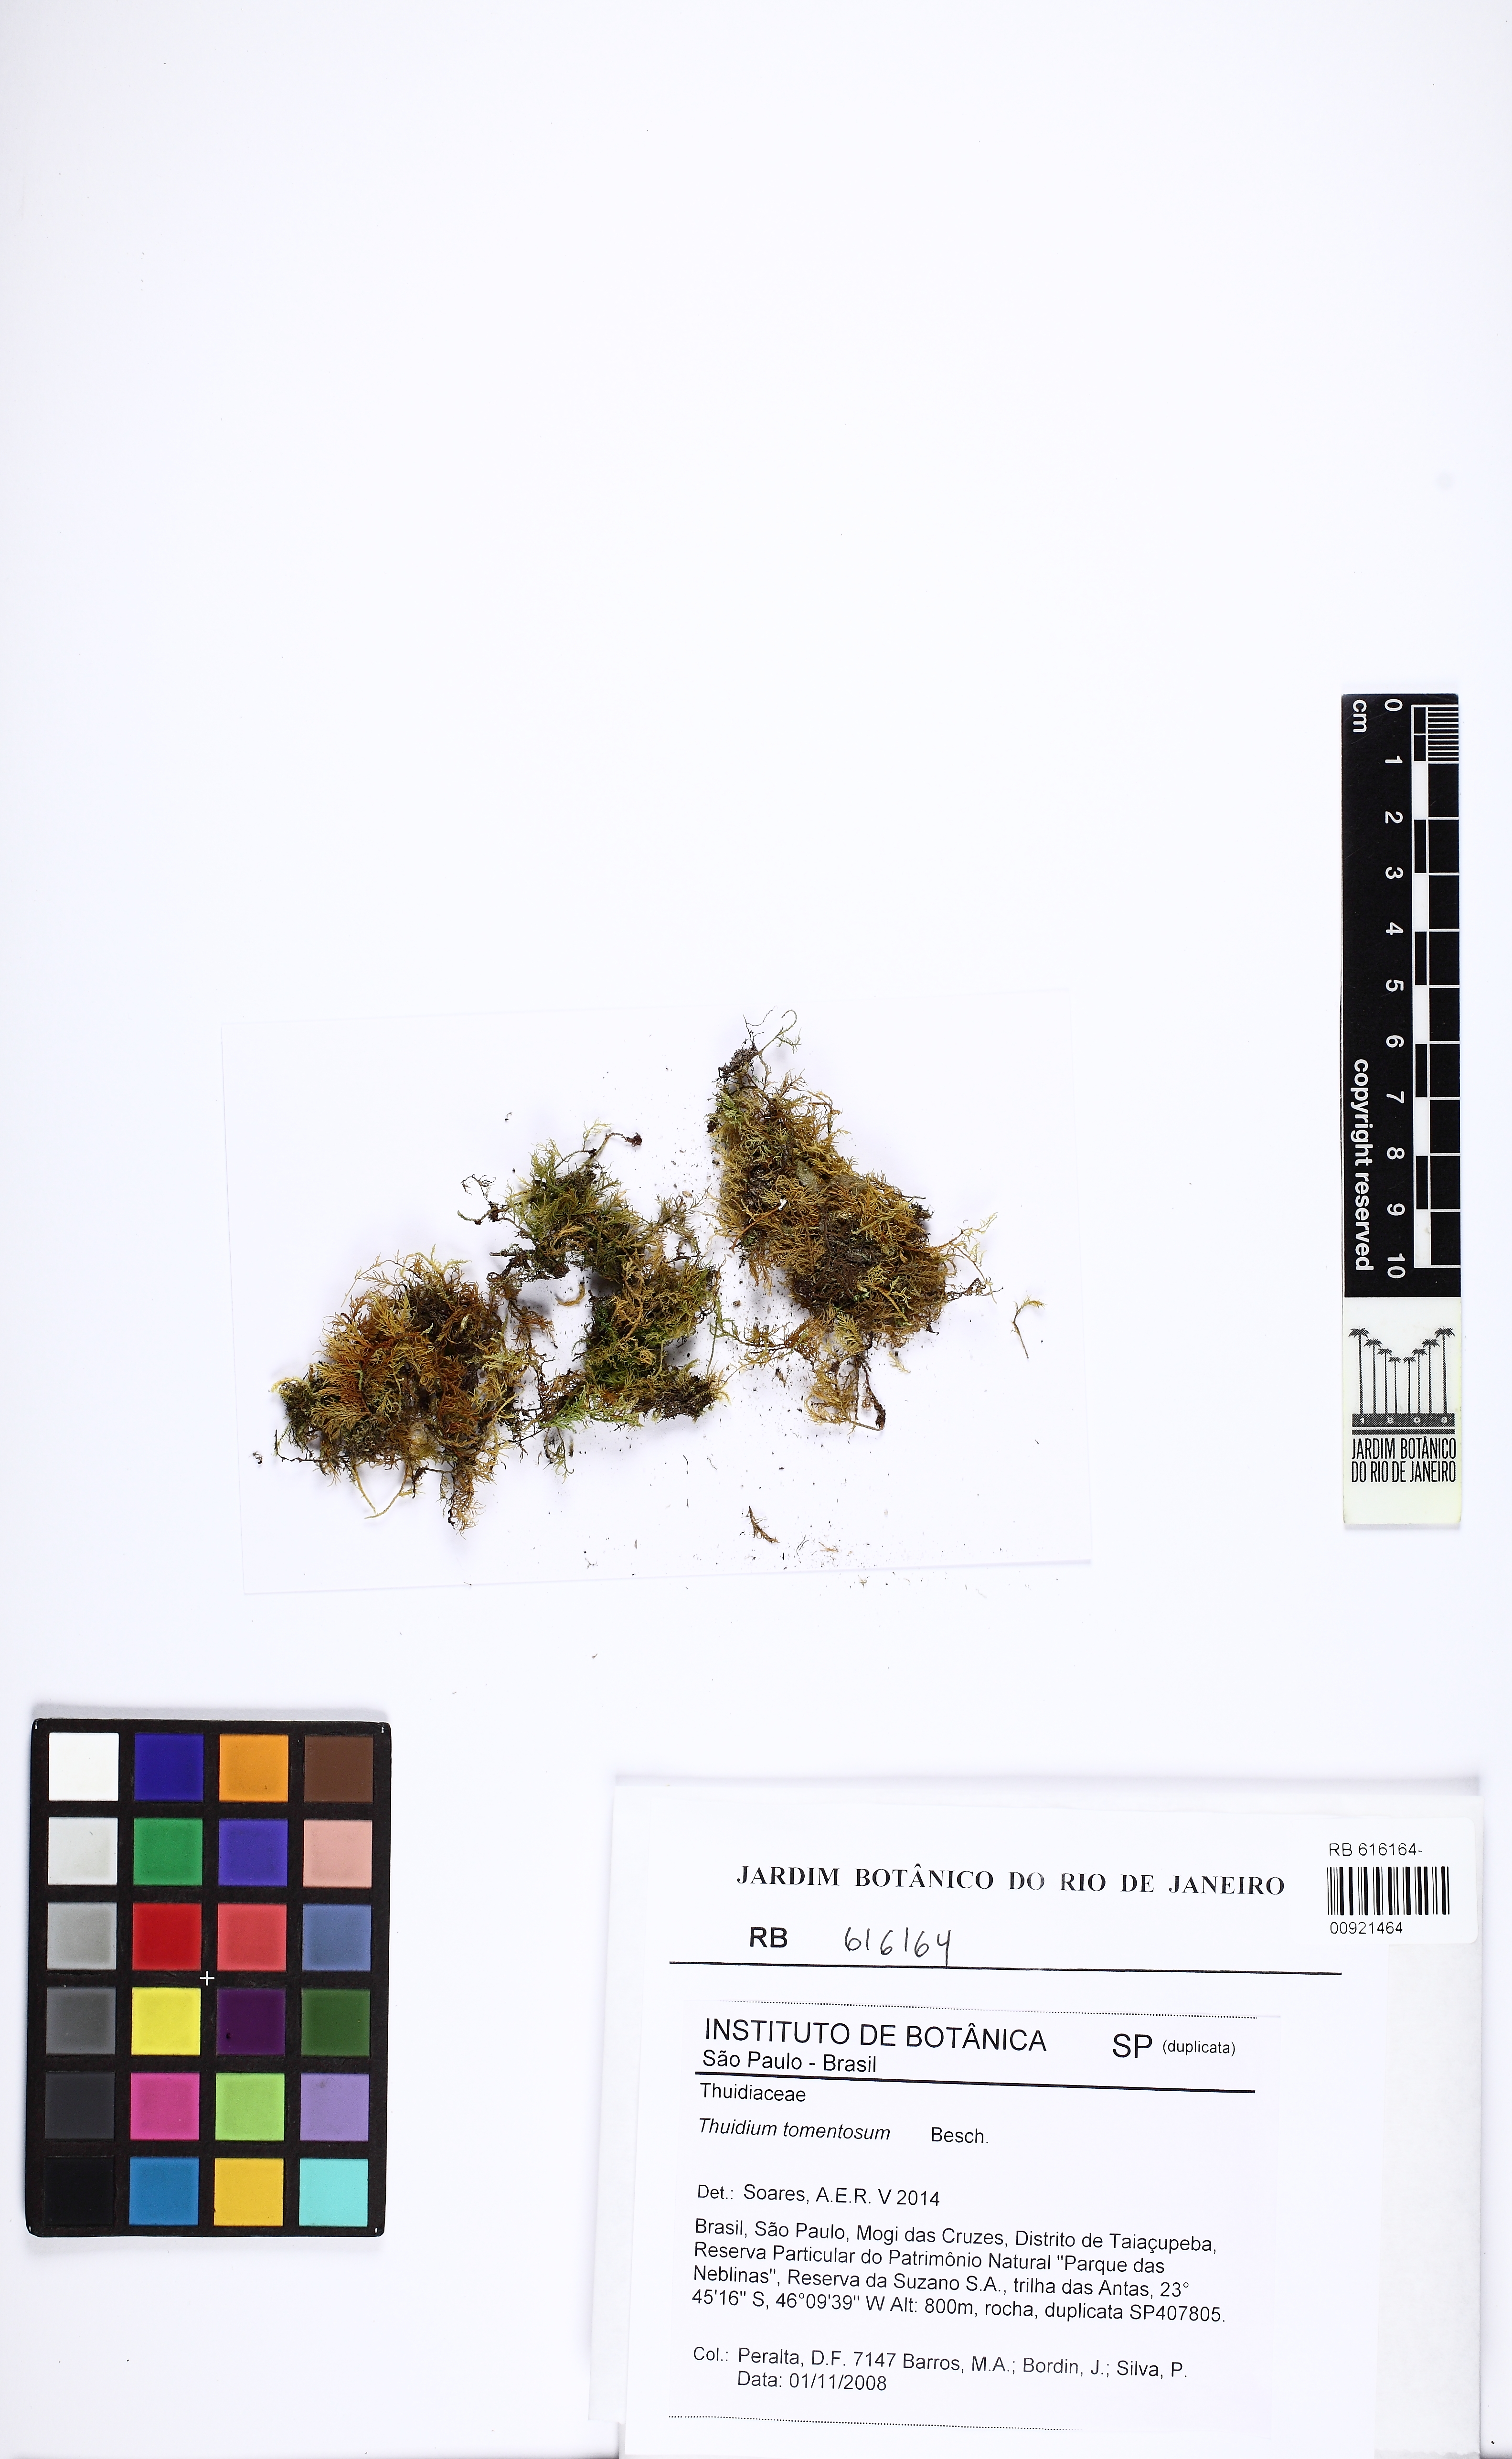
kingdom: Plantae
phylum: Bryophyta
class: Bryopsida
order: Hypnales
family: Thuidiaceae
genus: Thuidium
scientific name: Thuidium tomentosum
